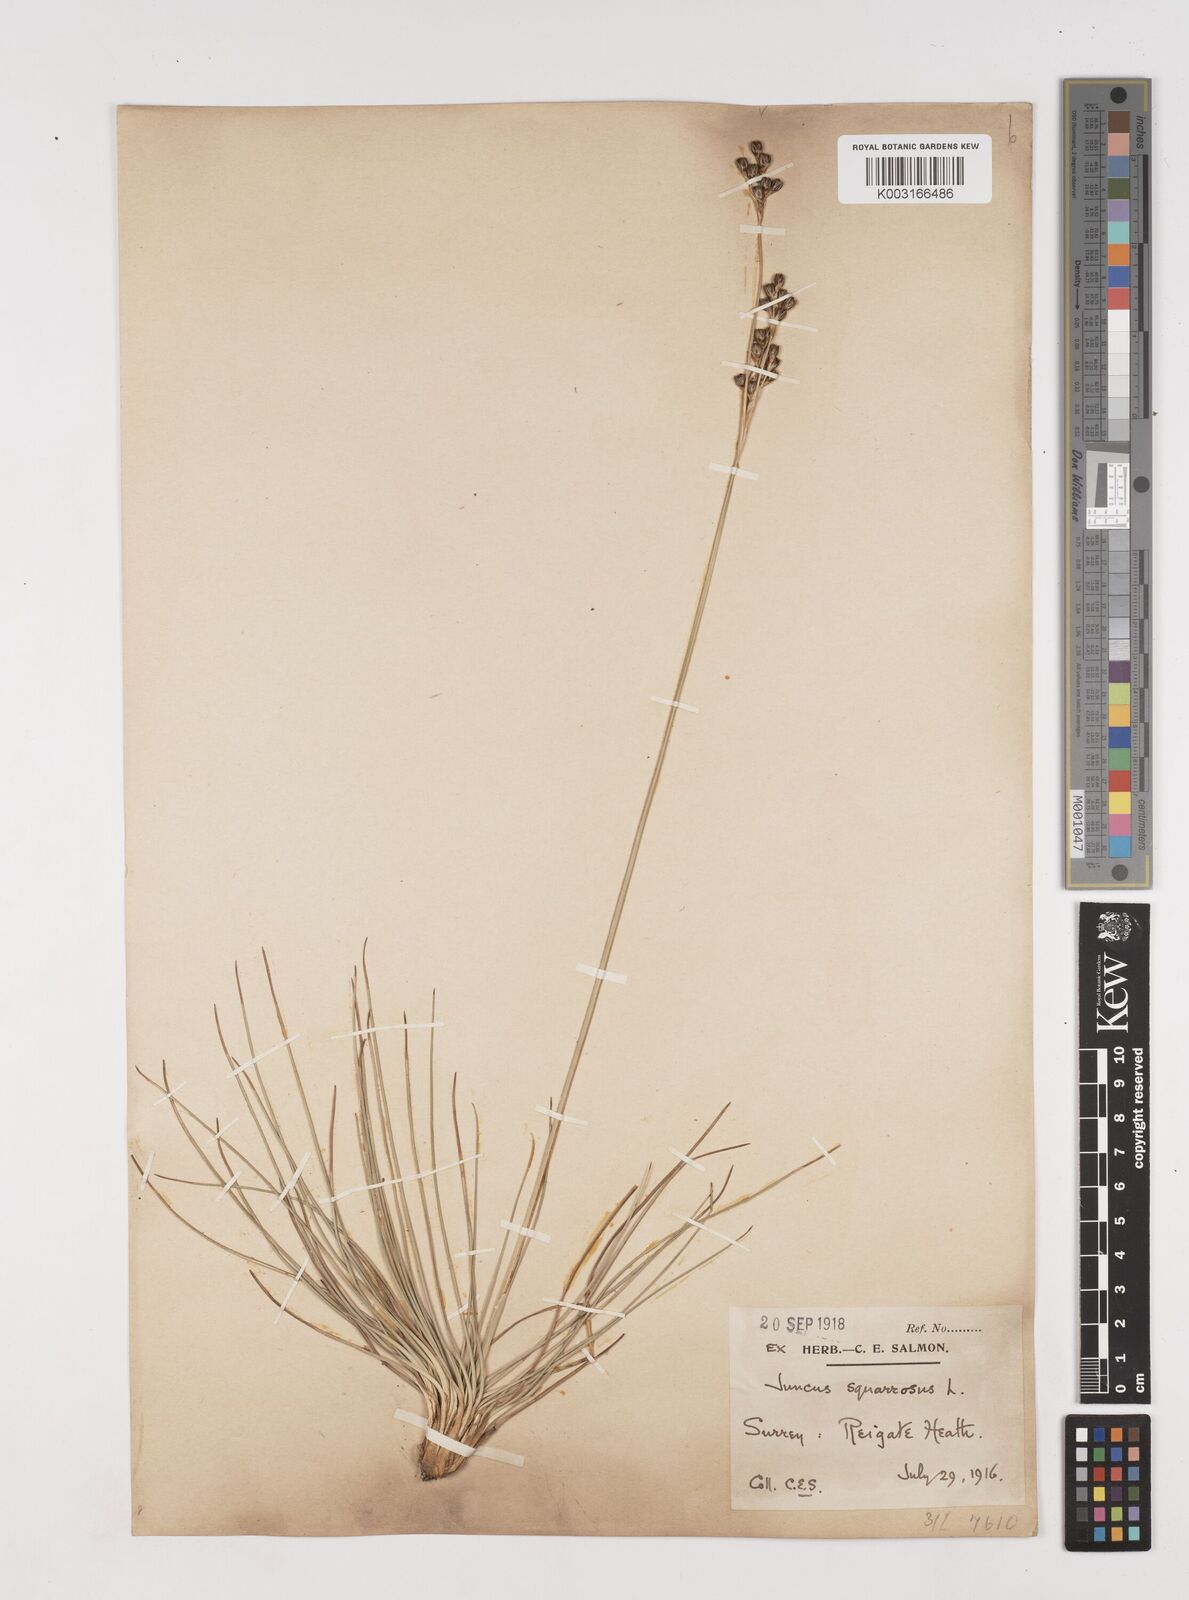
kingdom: Plantae
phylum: Tracheophyta
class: Liliopsida
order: Poales
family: Juncaceae
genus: Juncus
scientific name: Juncus squarrosus
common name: Heath rush
